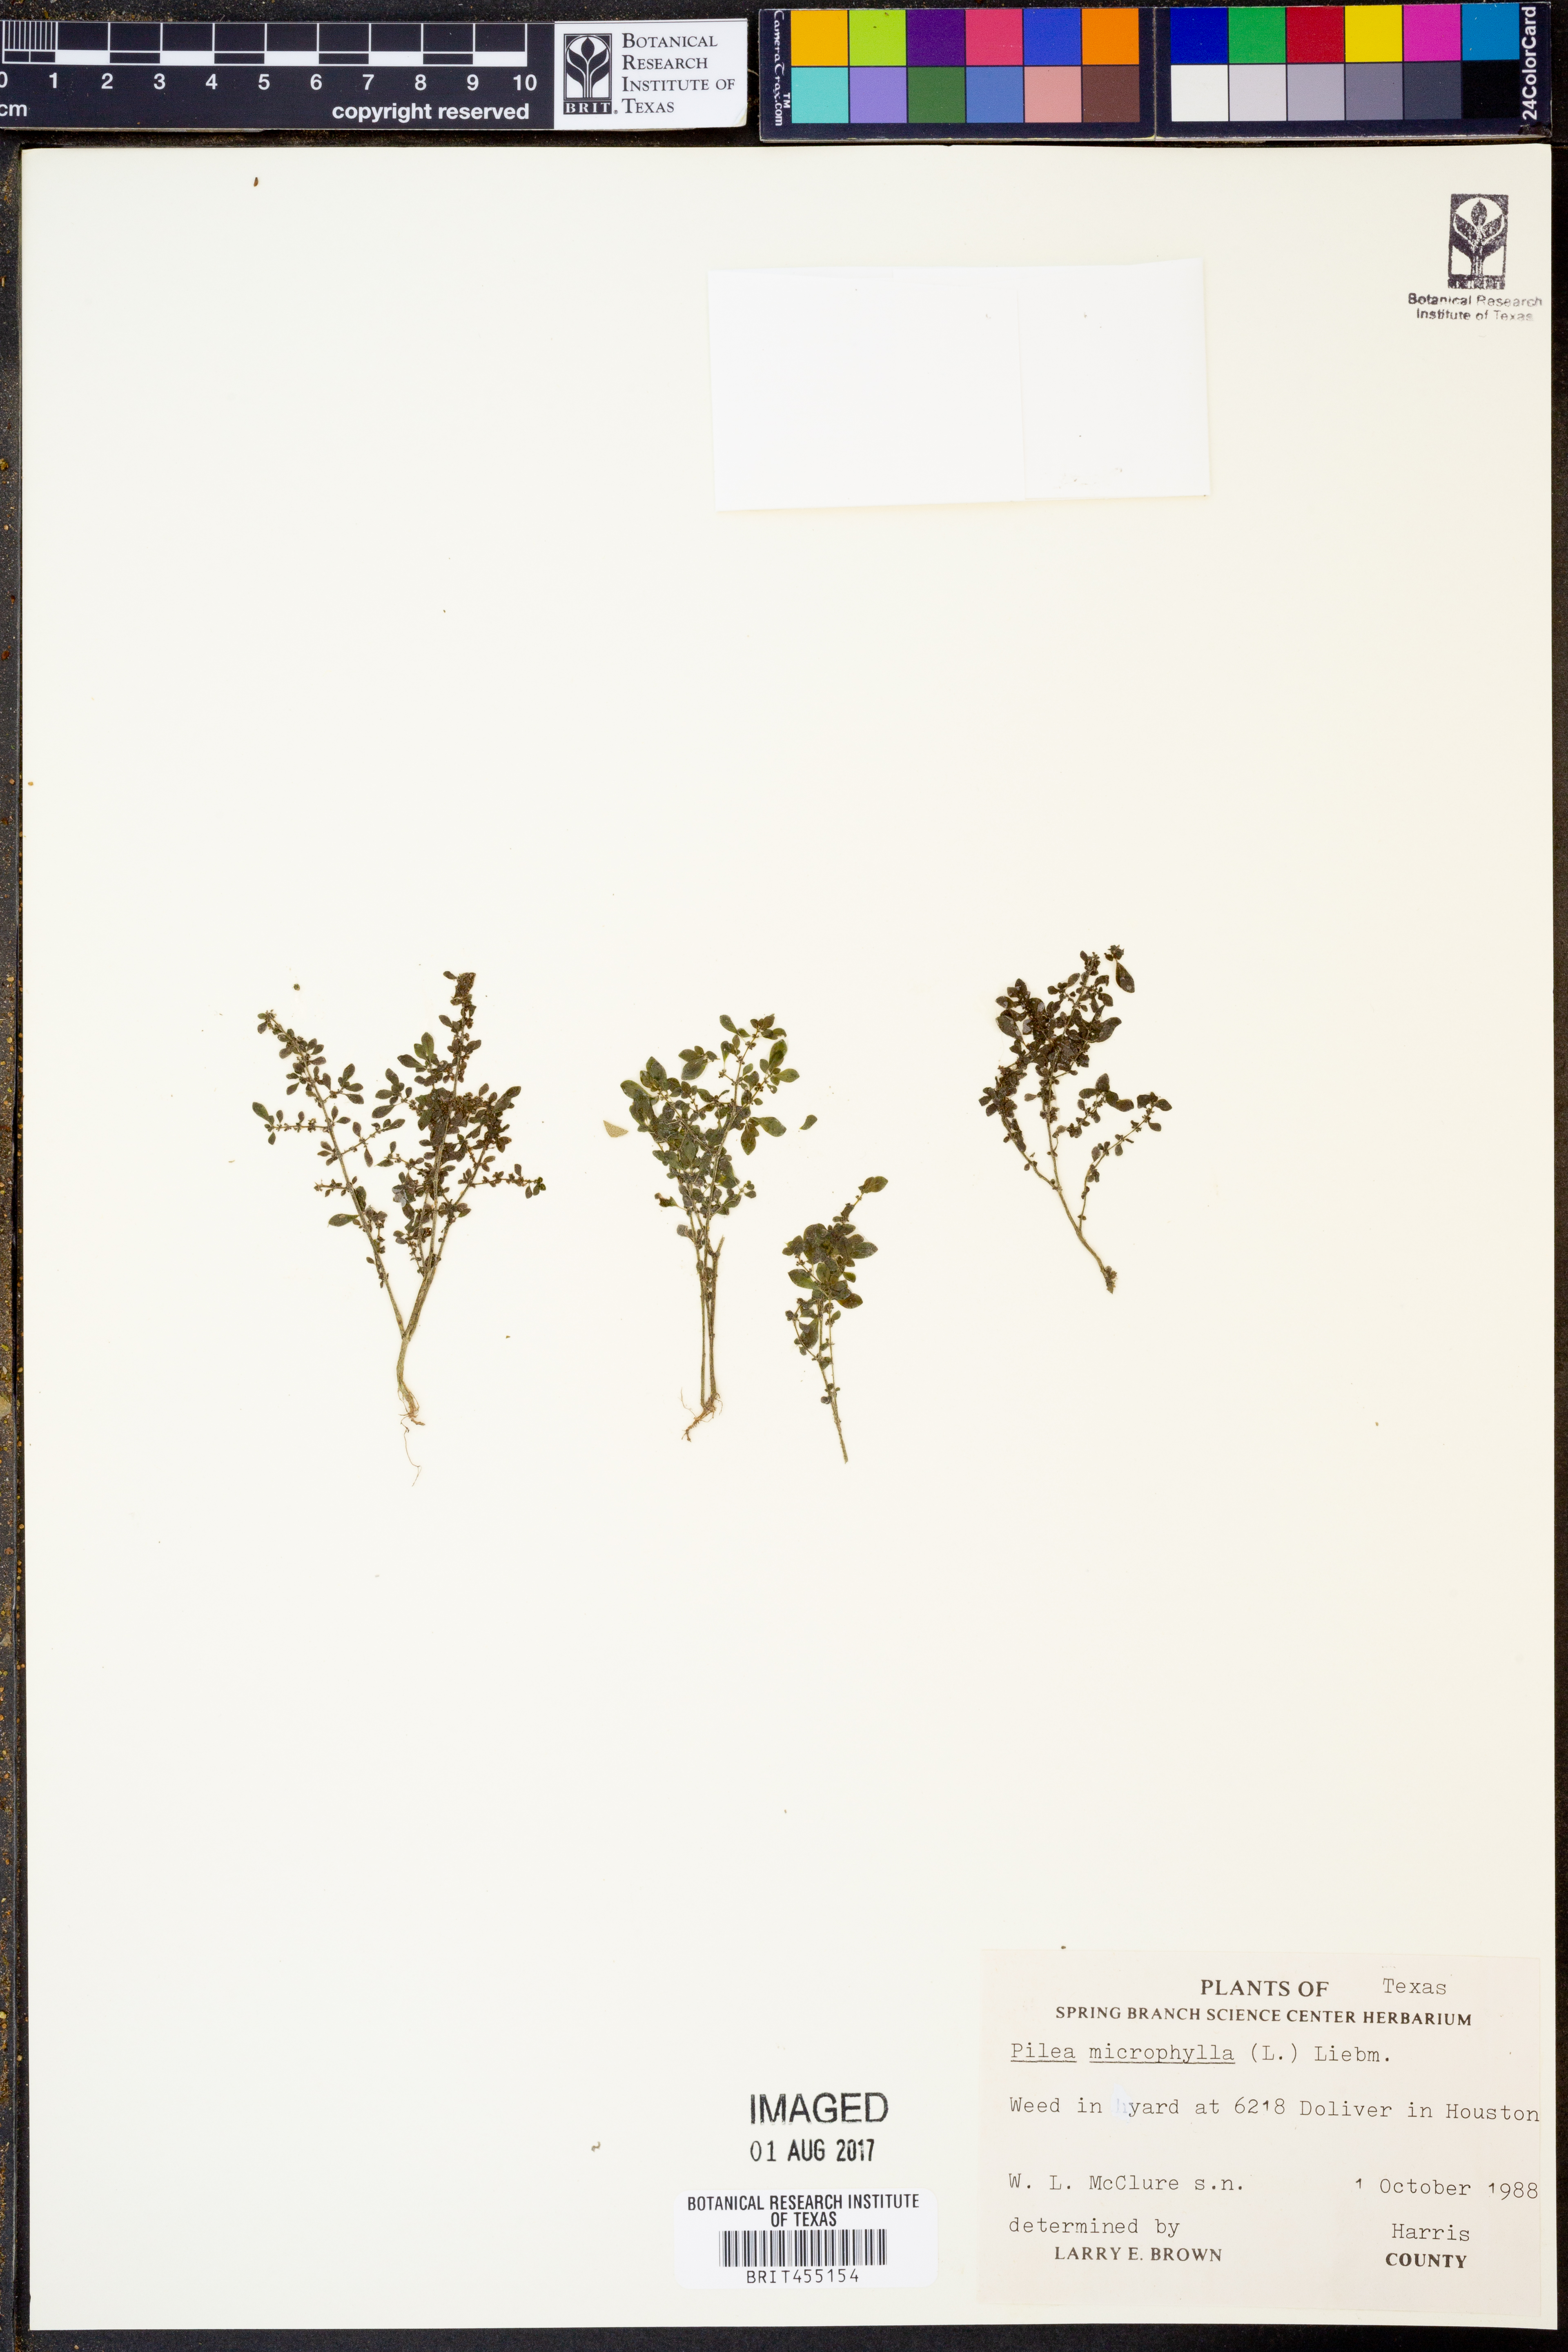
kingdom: Plantae
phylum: Tracheophyta
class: Magnoliopsida
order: Rosales
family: Urticaceae
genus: Pilea
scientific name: Pilea microphylla
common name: Artillery-plant
